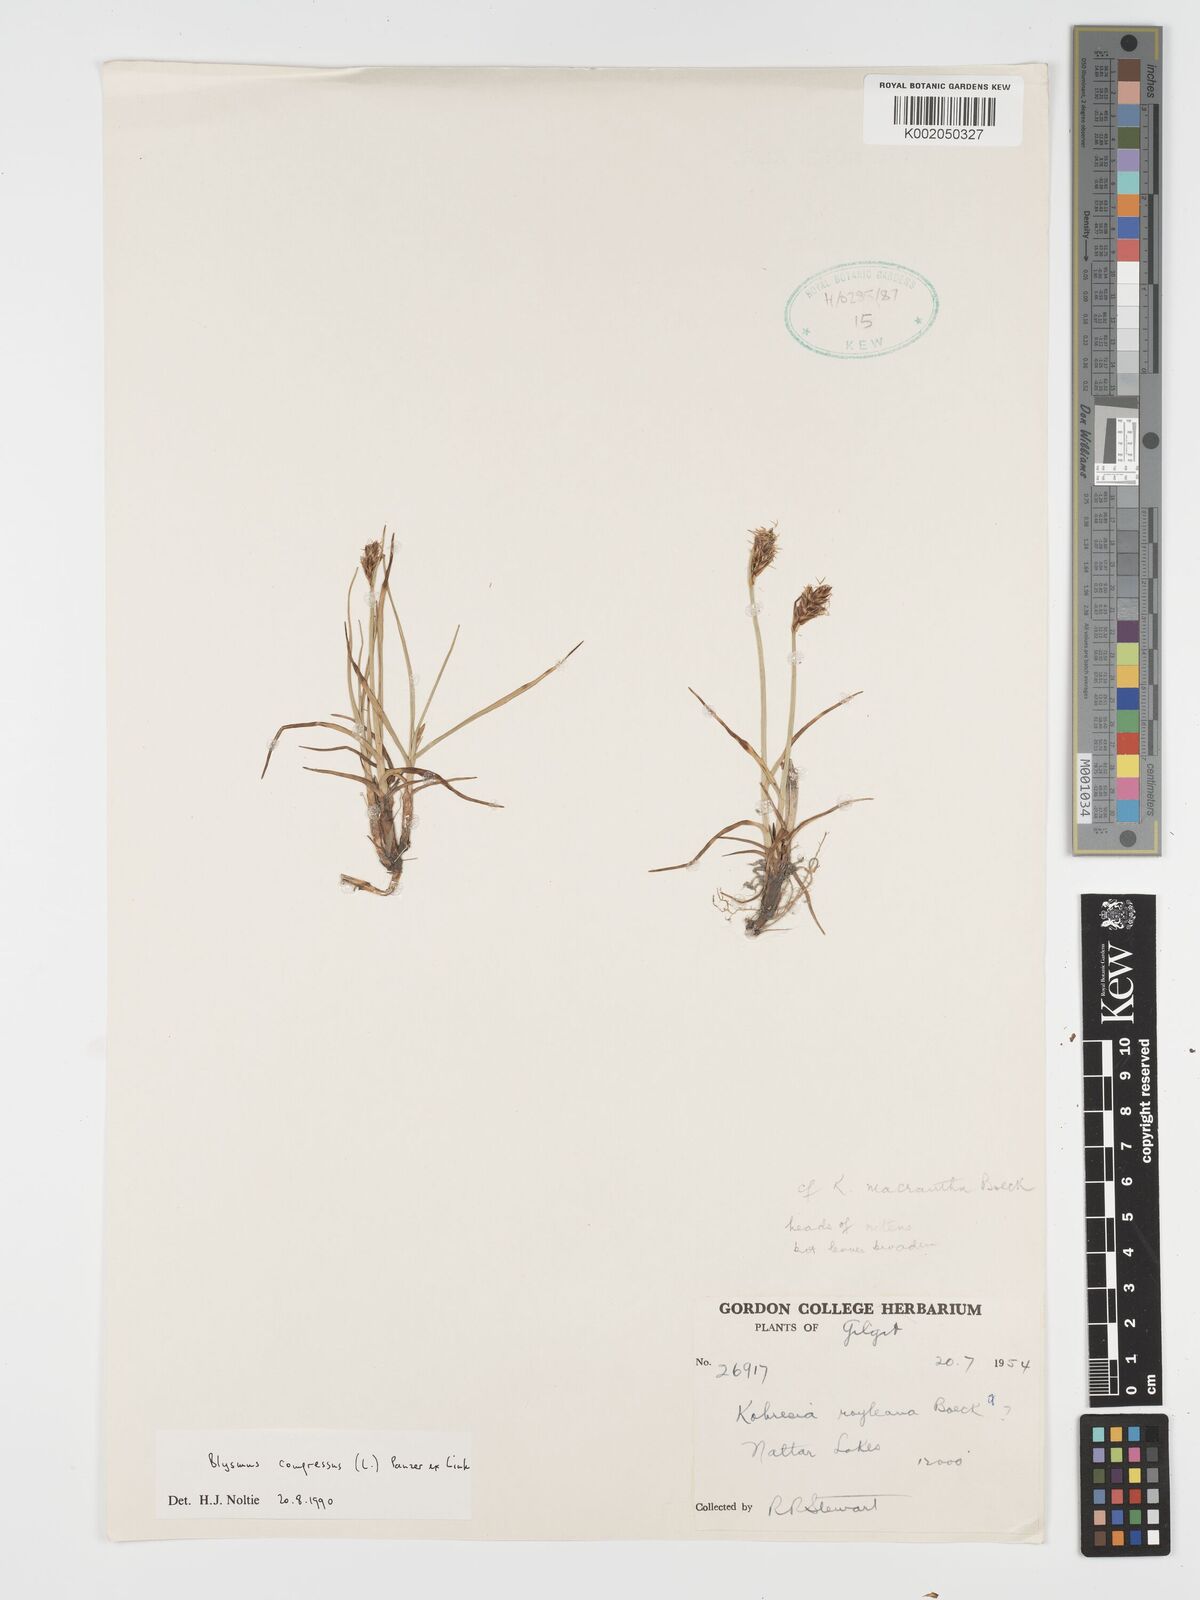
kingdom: Plantae
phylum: Tracheophyta
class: Liliopsida
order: Poales
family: Cyperaceae
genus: Blysmus
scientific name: Blysmus compressus
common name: Flat-sedge
